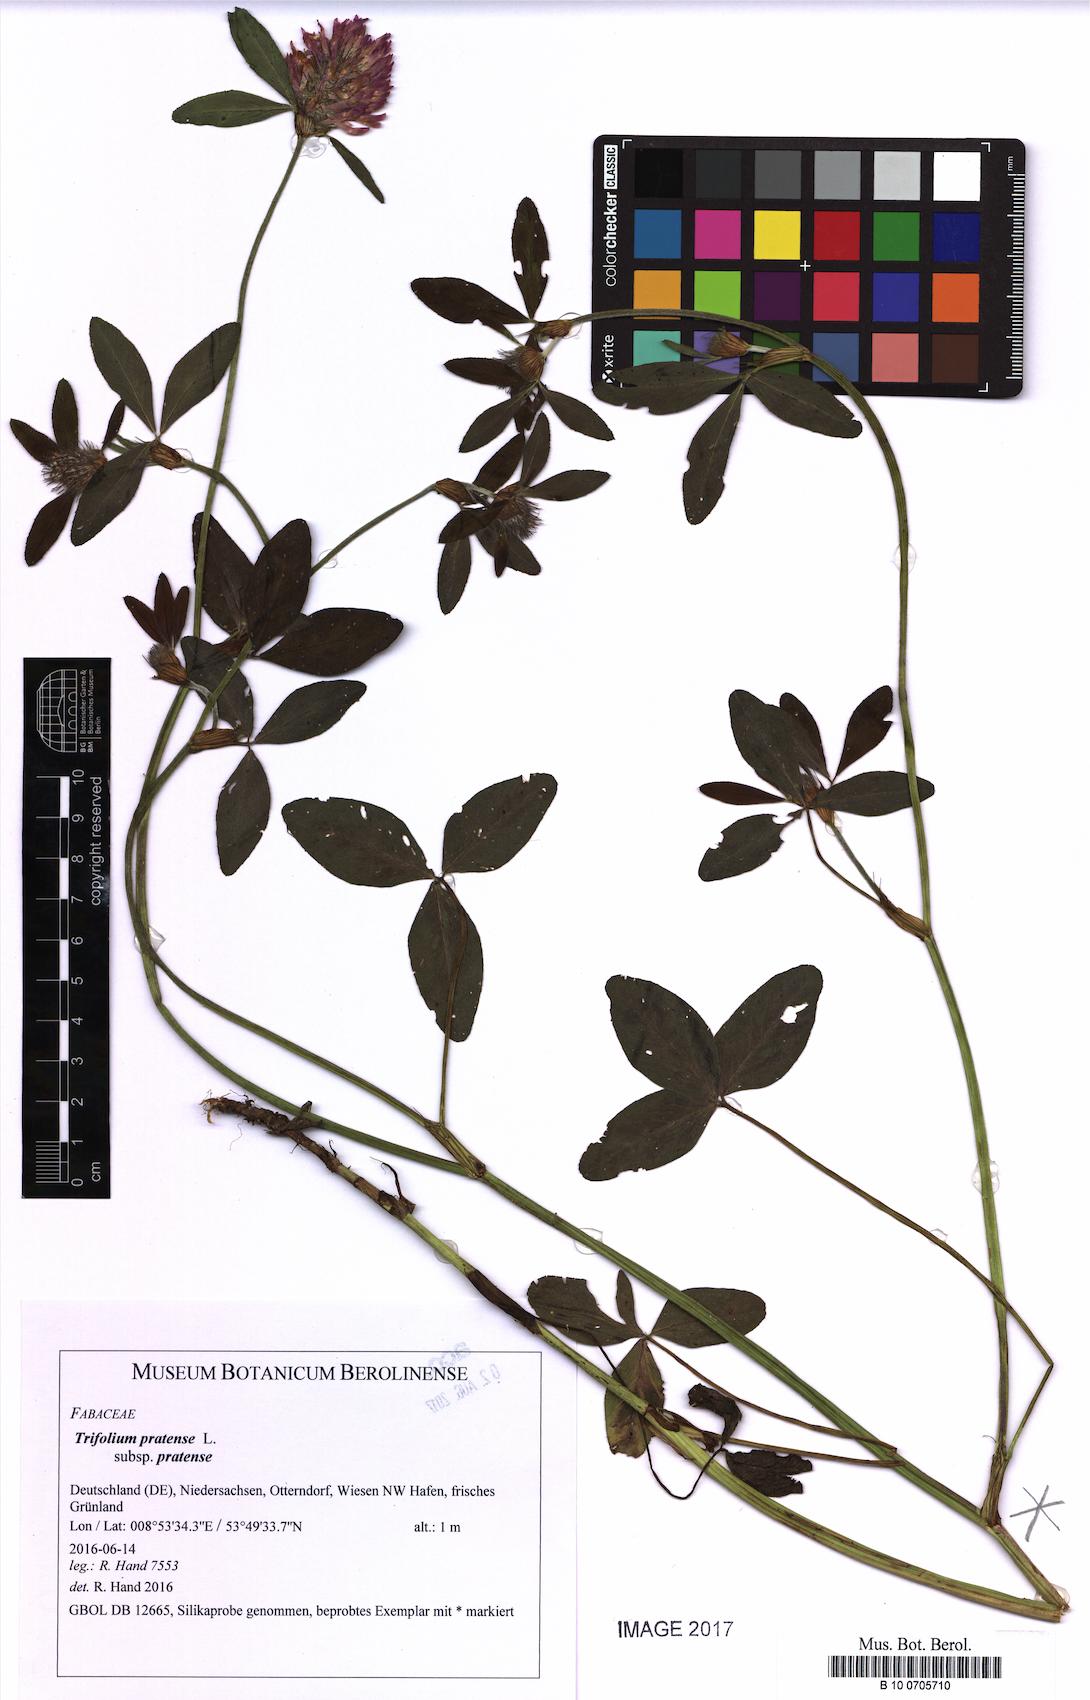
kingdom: Plantae
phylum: Tracheophyta
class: Magnoliopsida
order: Fabales
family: Fabaceae
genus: Trifolium
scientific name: Trifolium pratense
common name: Red clover
